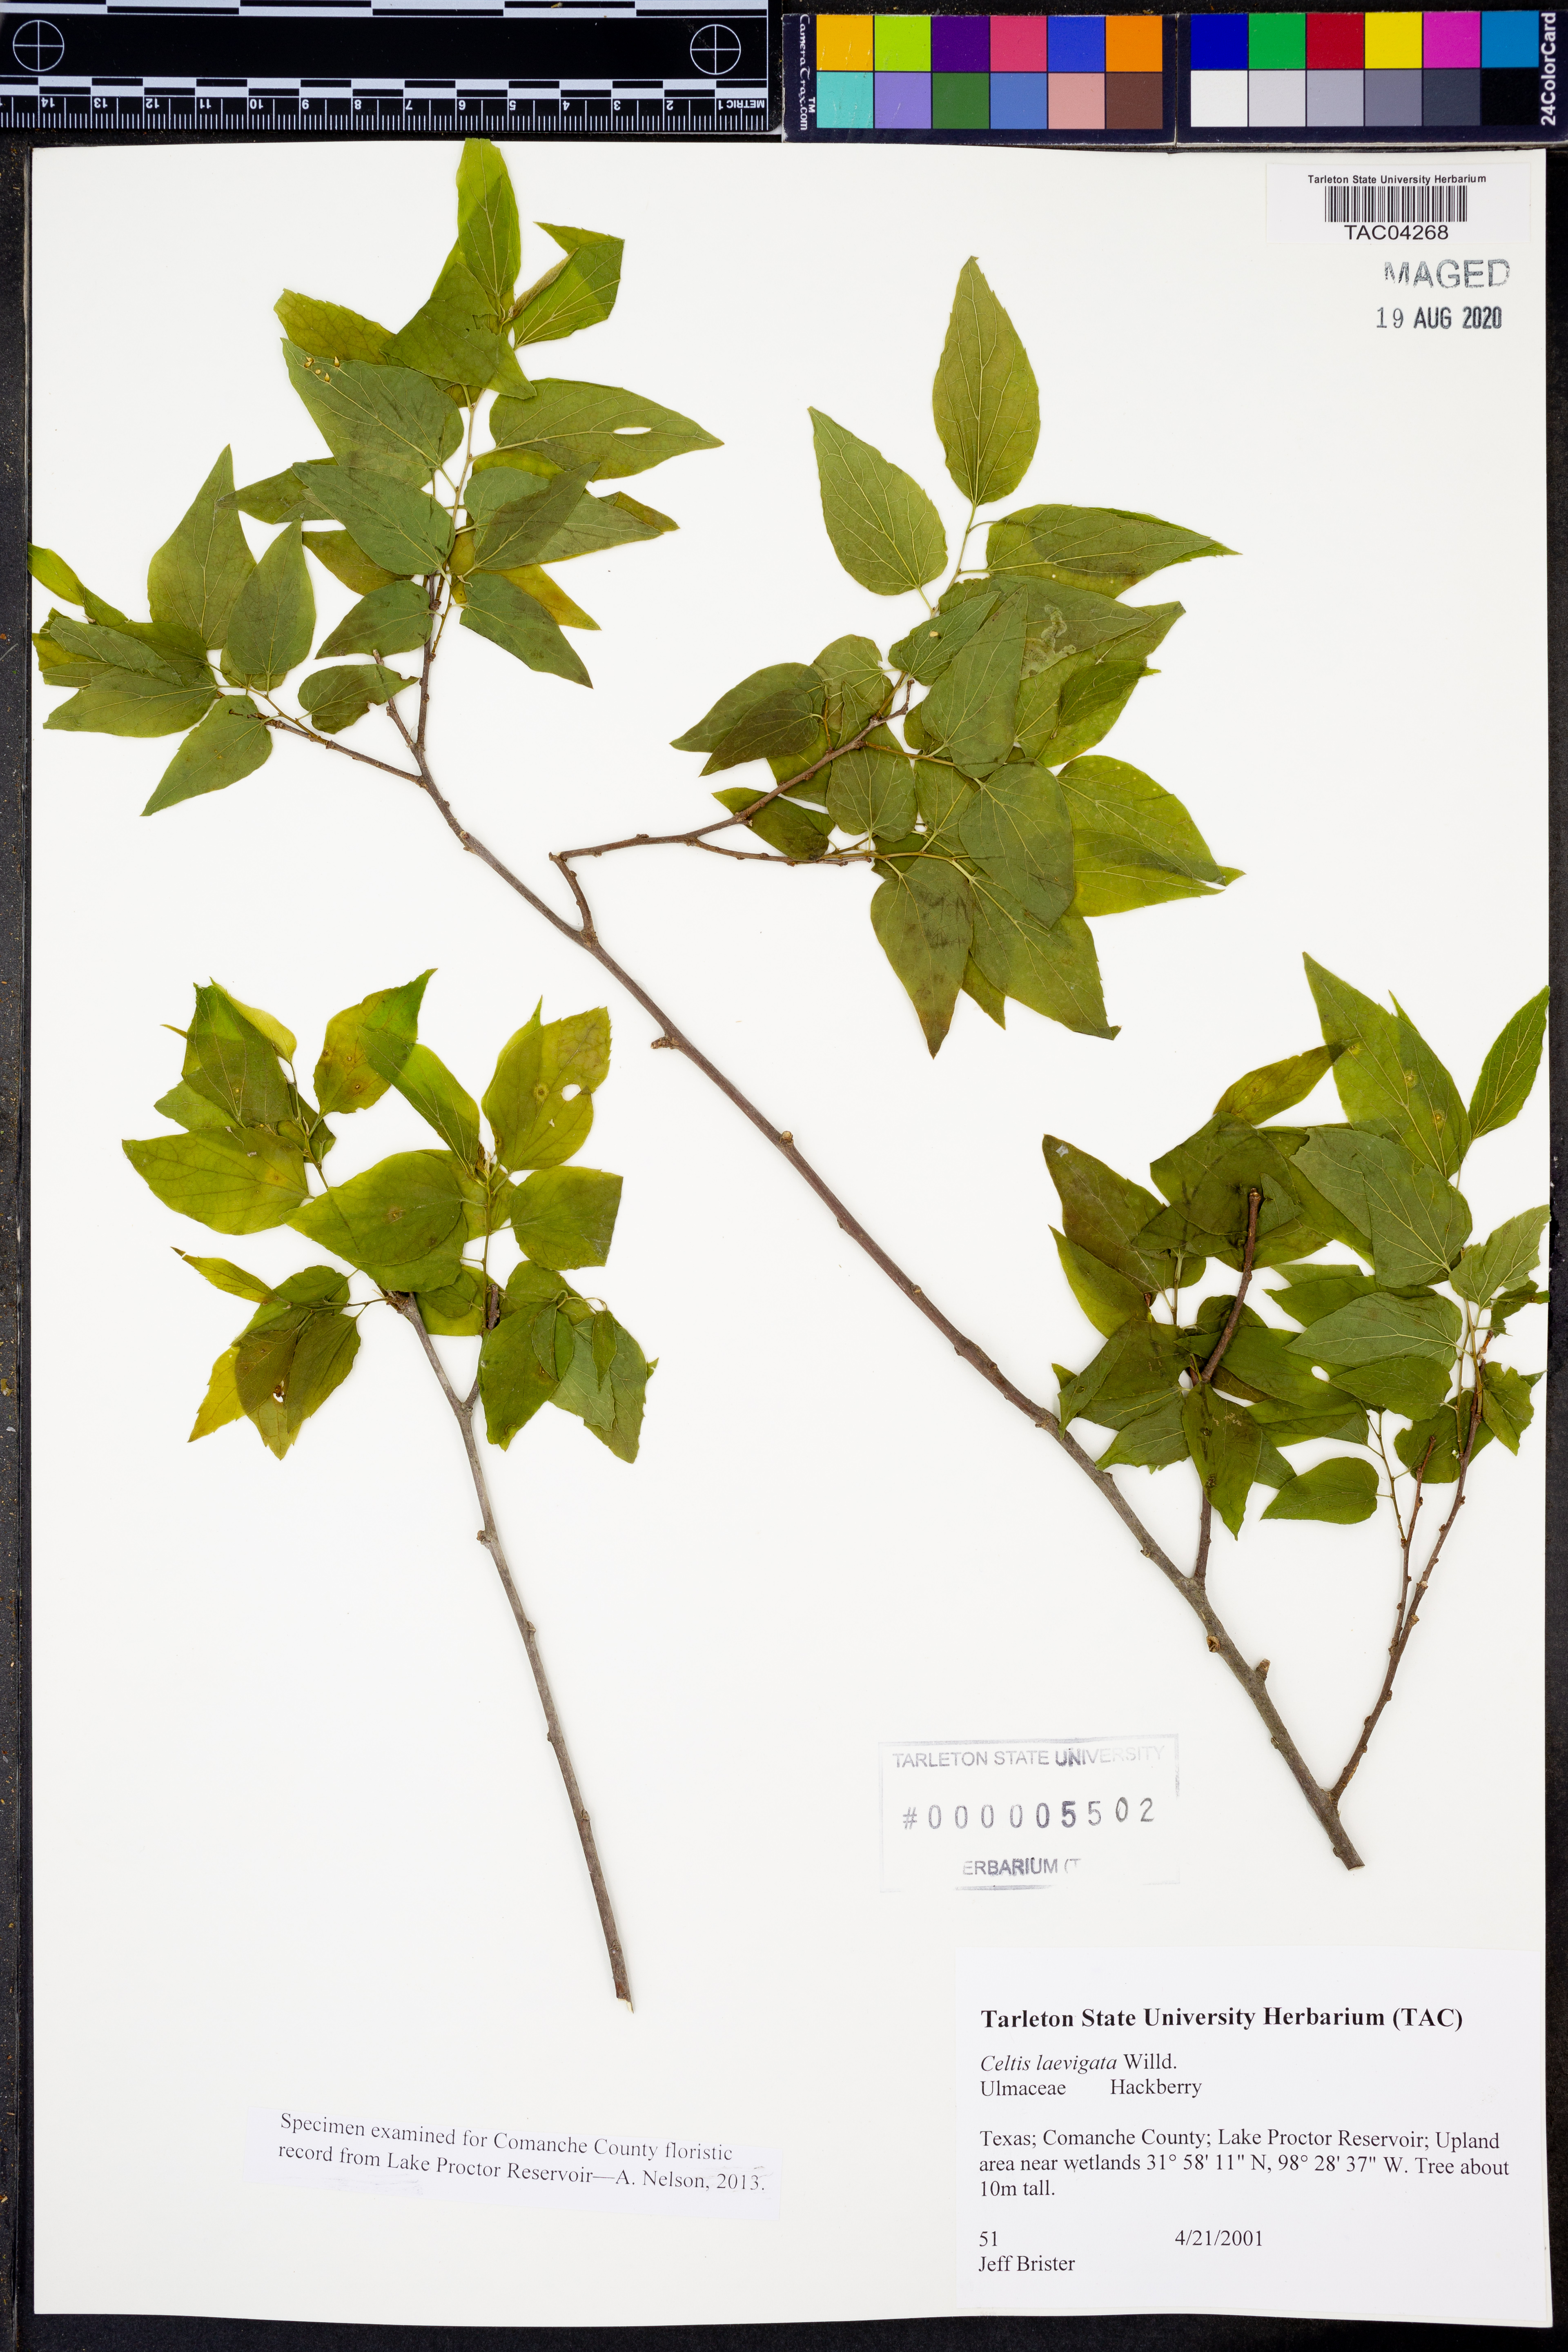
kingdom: Plantae
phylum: Tracheophyta
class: Magnoliopsida
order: Rosales
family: Cannabaceae
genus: Celtis
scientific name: Celtis laevigata
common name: Sugarberry
